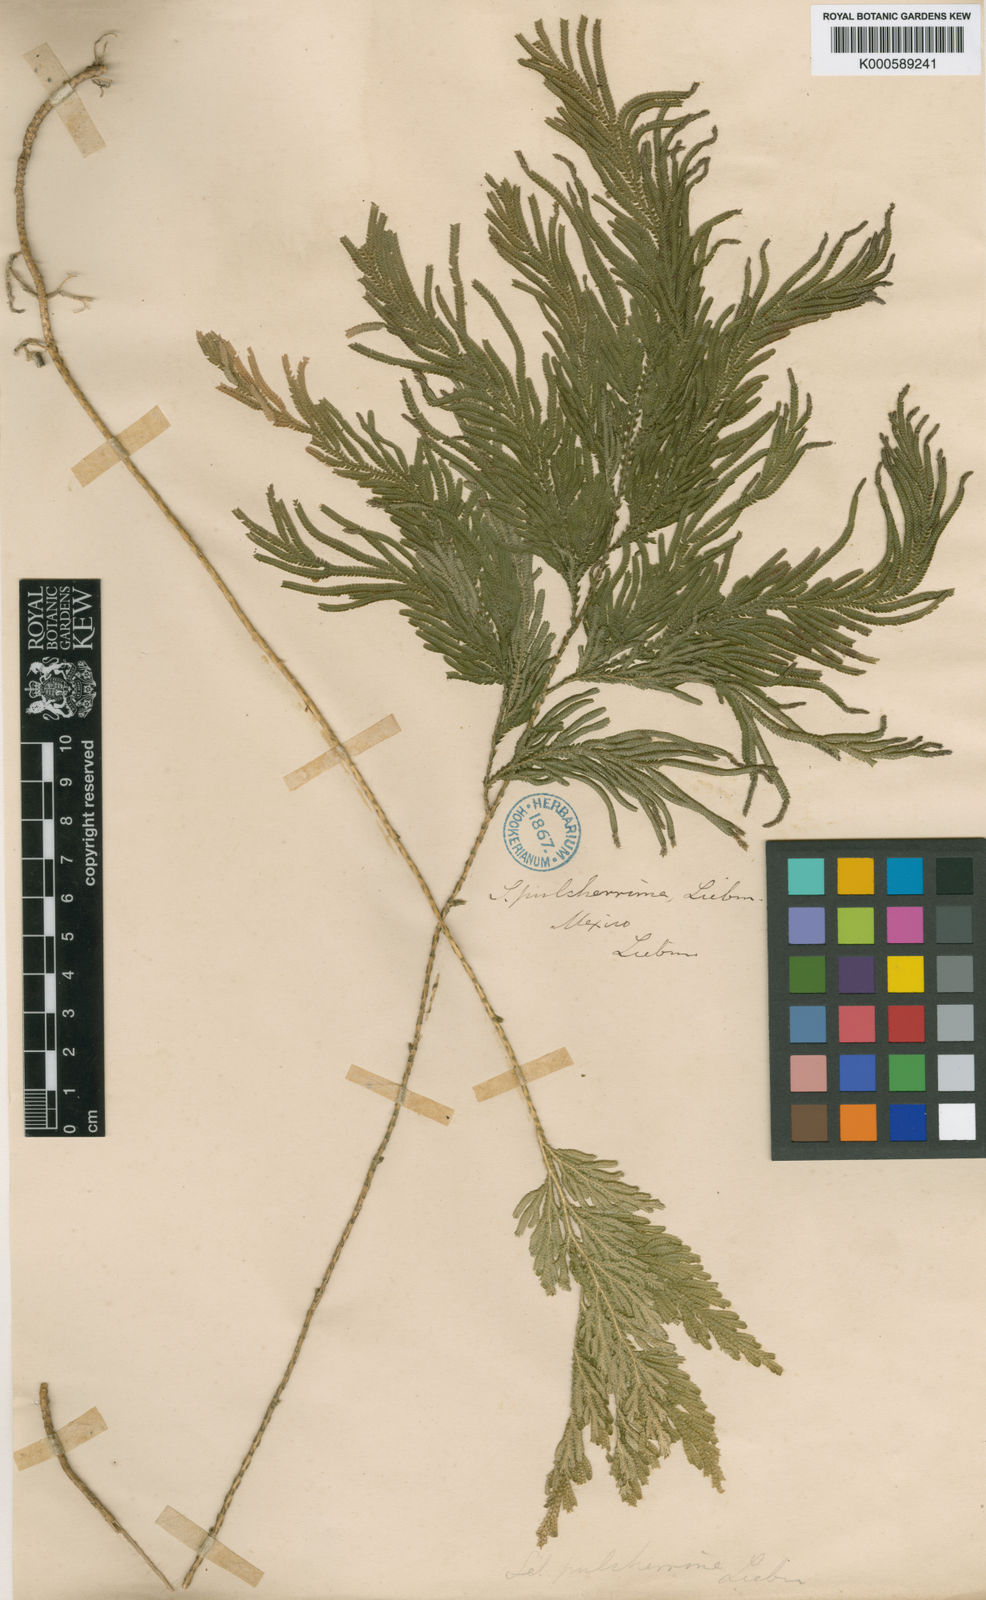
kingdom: Plantae
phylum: Tracheophyta
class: Lycopodiopsida
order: Selaginellales
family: Selaginellaceae
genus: Selaginella
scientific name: Selaginella pulcherrima
